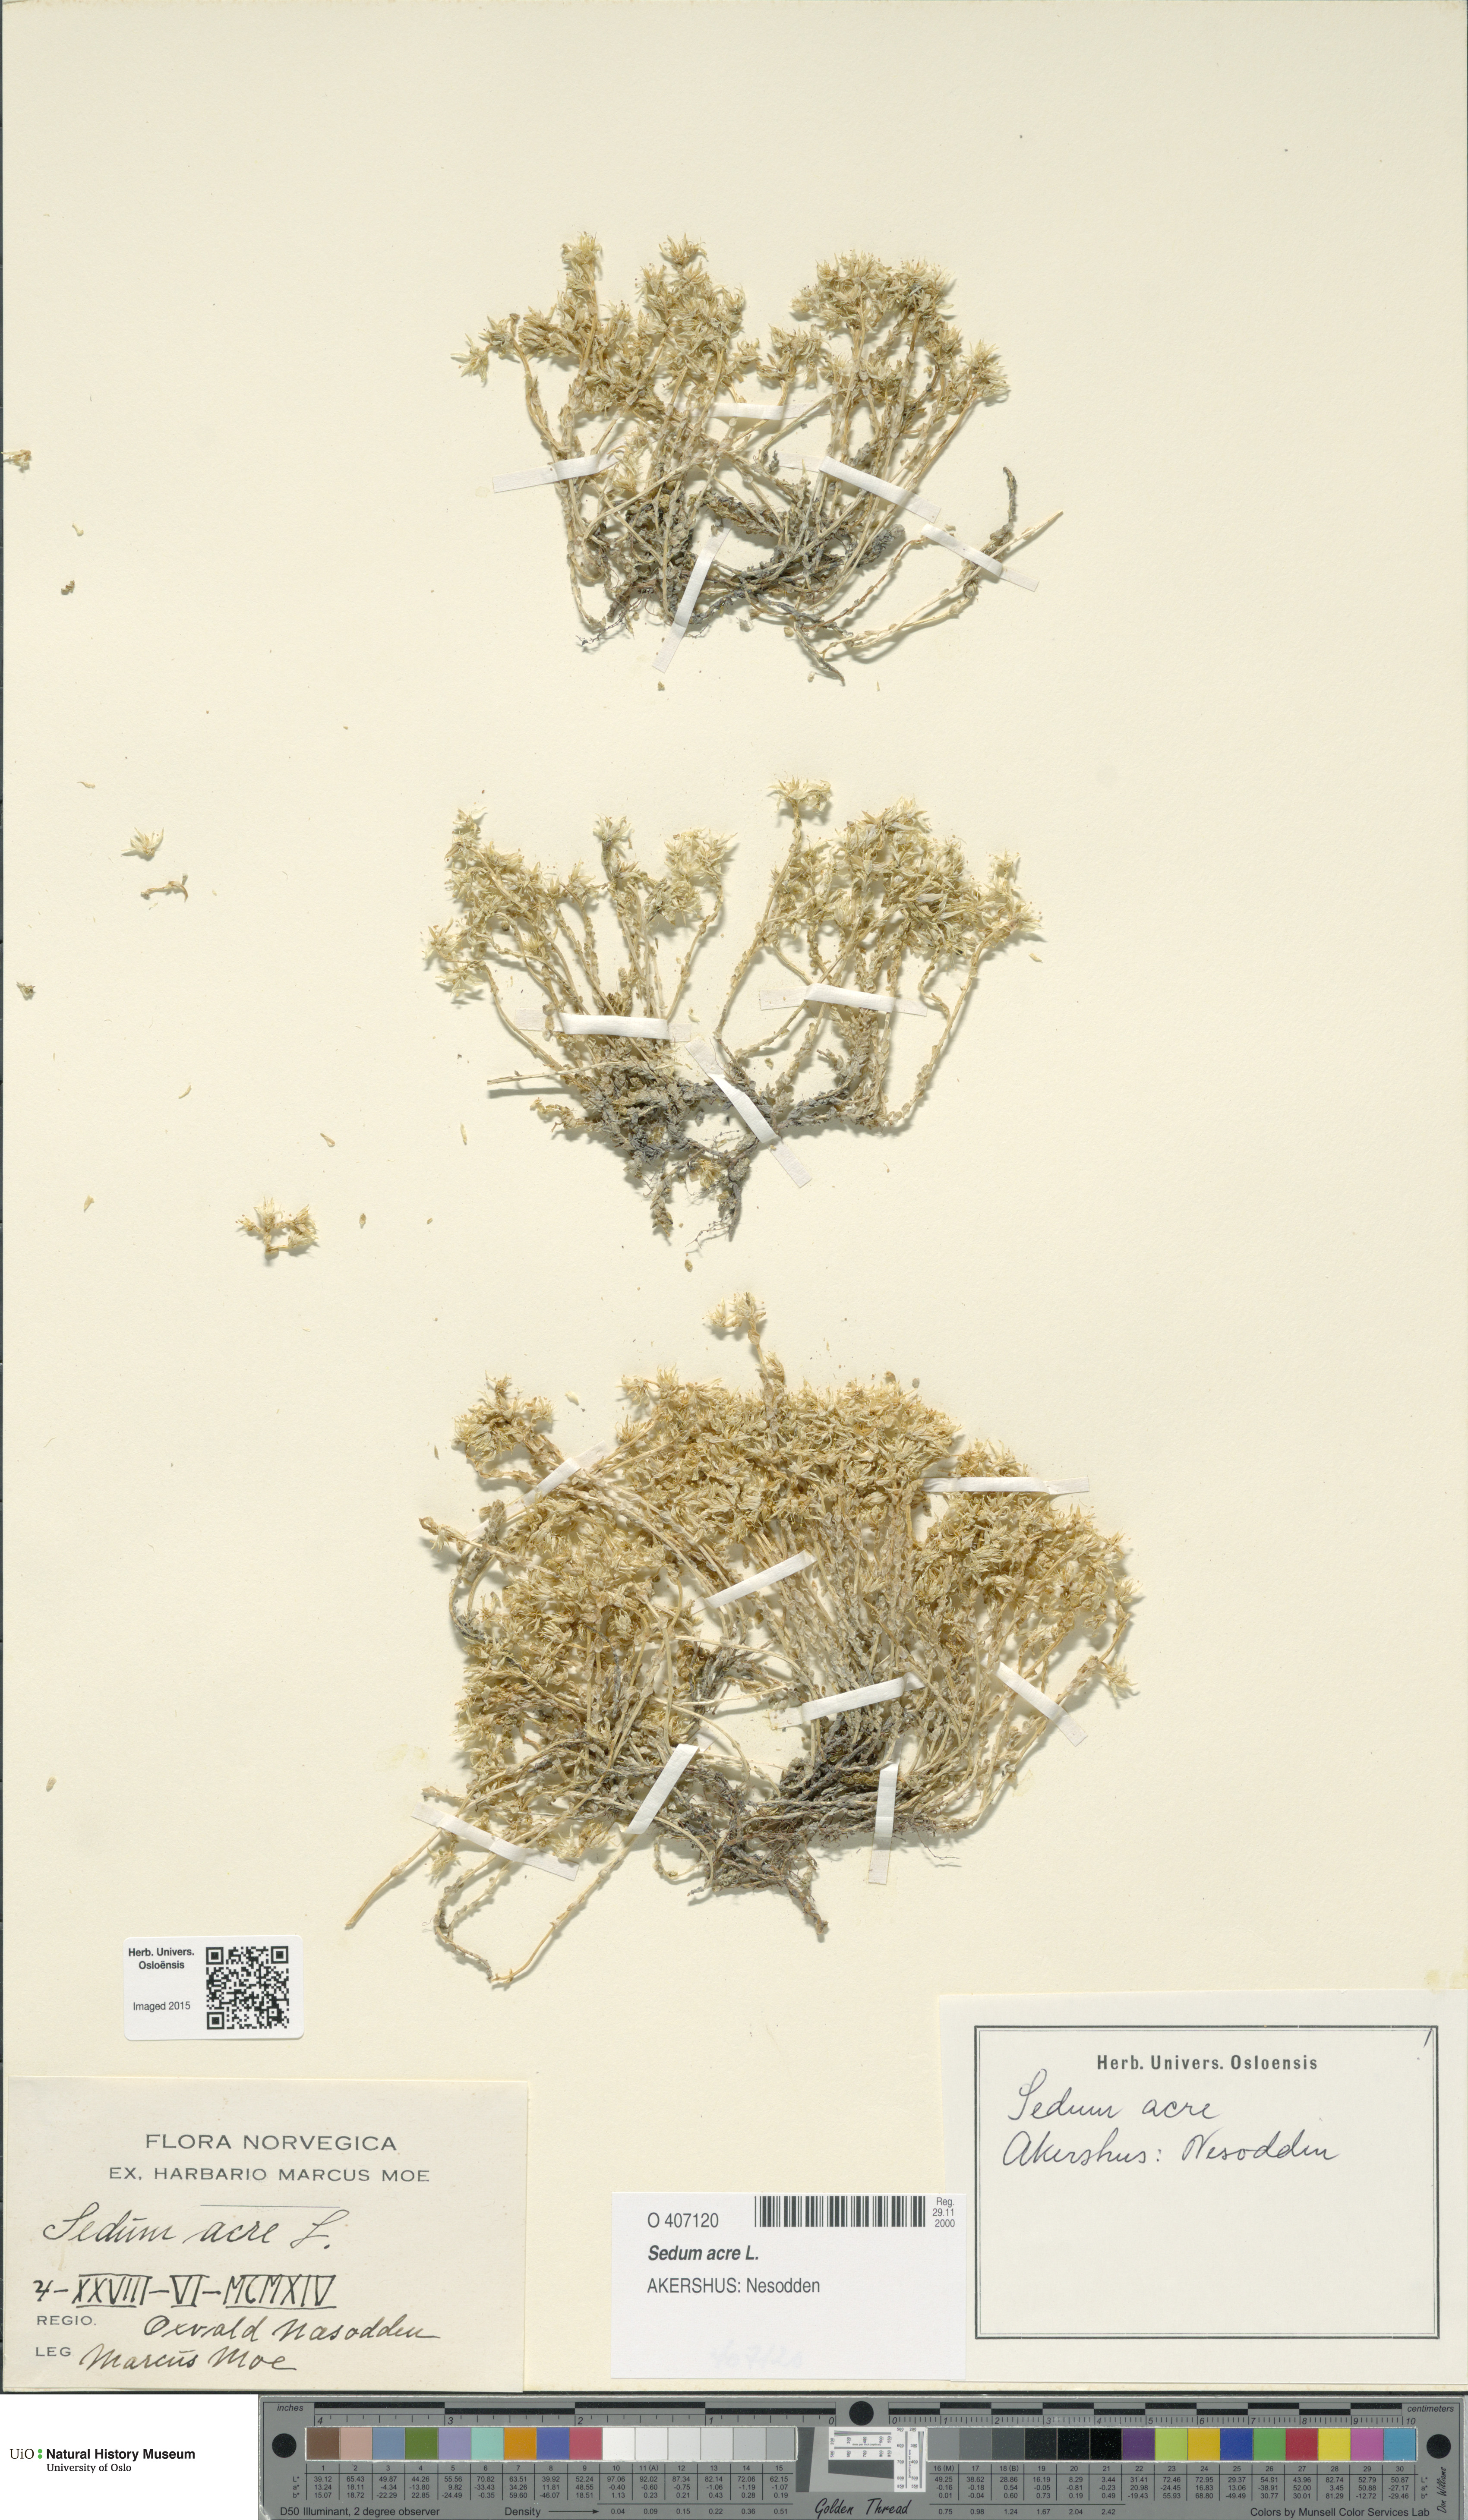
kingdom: Plantae
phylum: Tracheophyta
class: Magnoliopsida
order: Saxifragales
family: Crassulaceae
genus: Sedum
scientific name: Sedum acre
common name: Biting stonecrop
